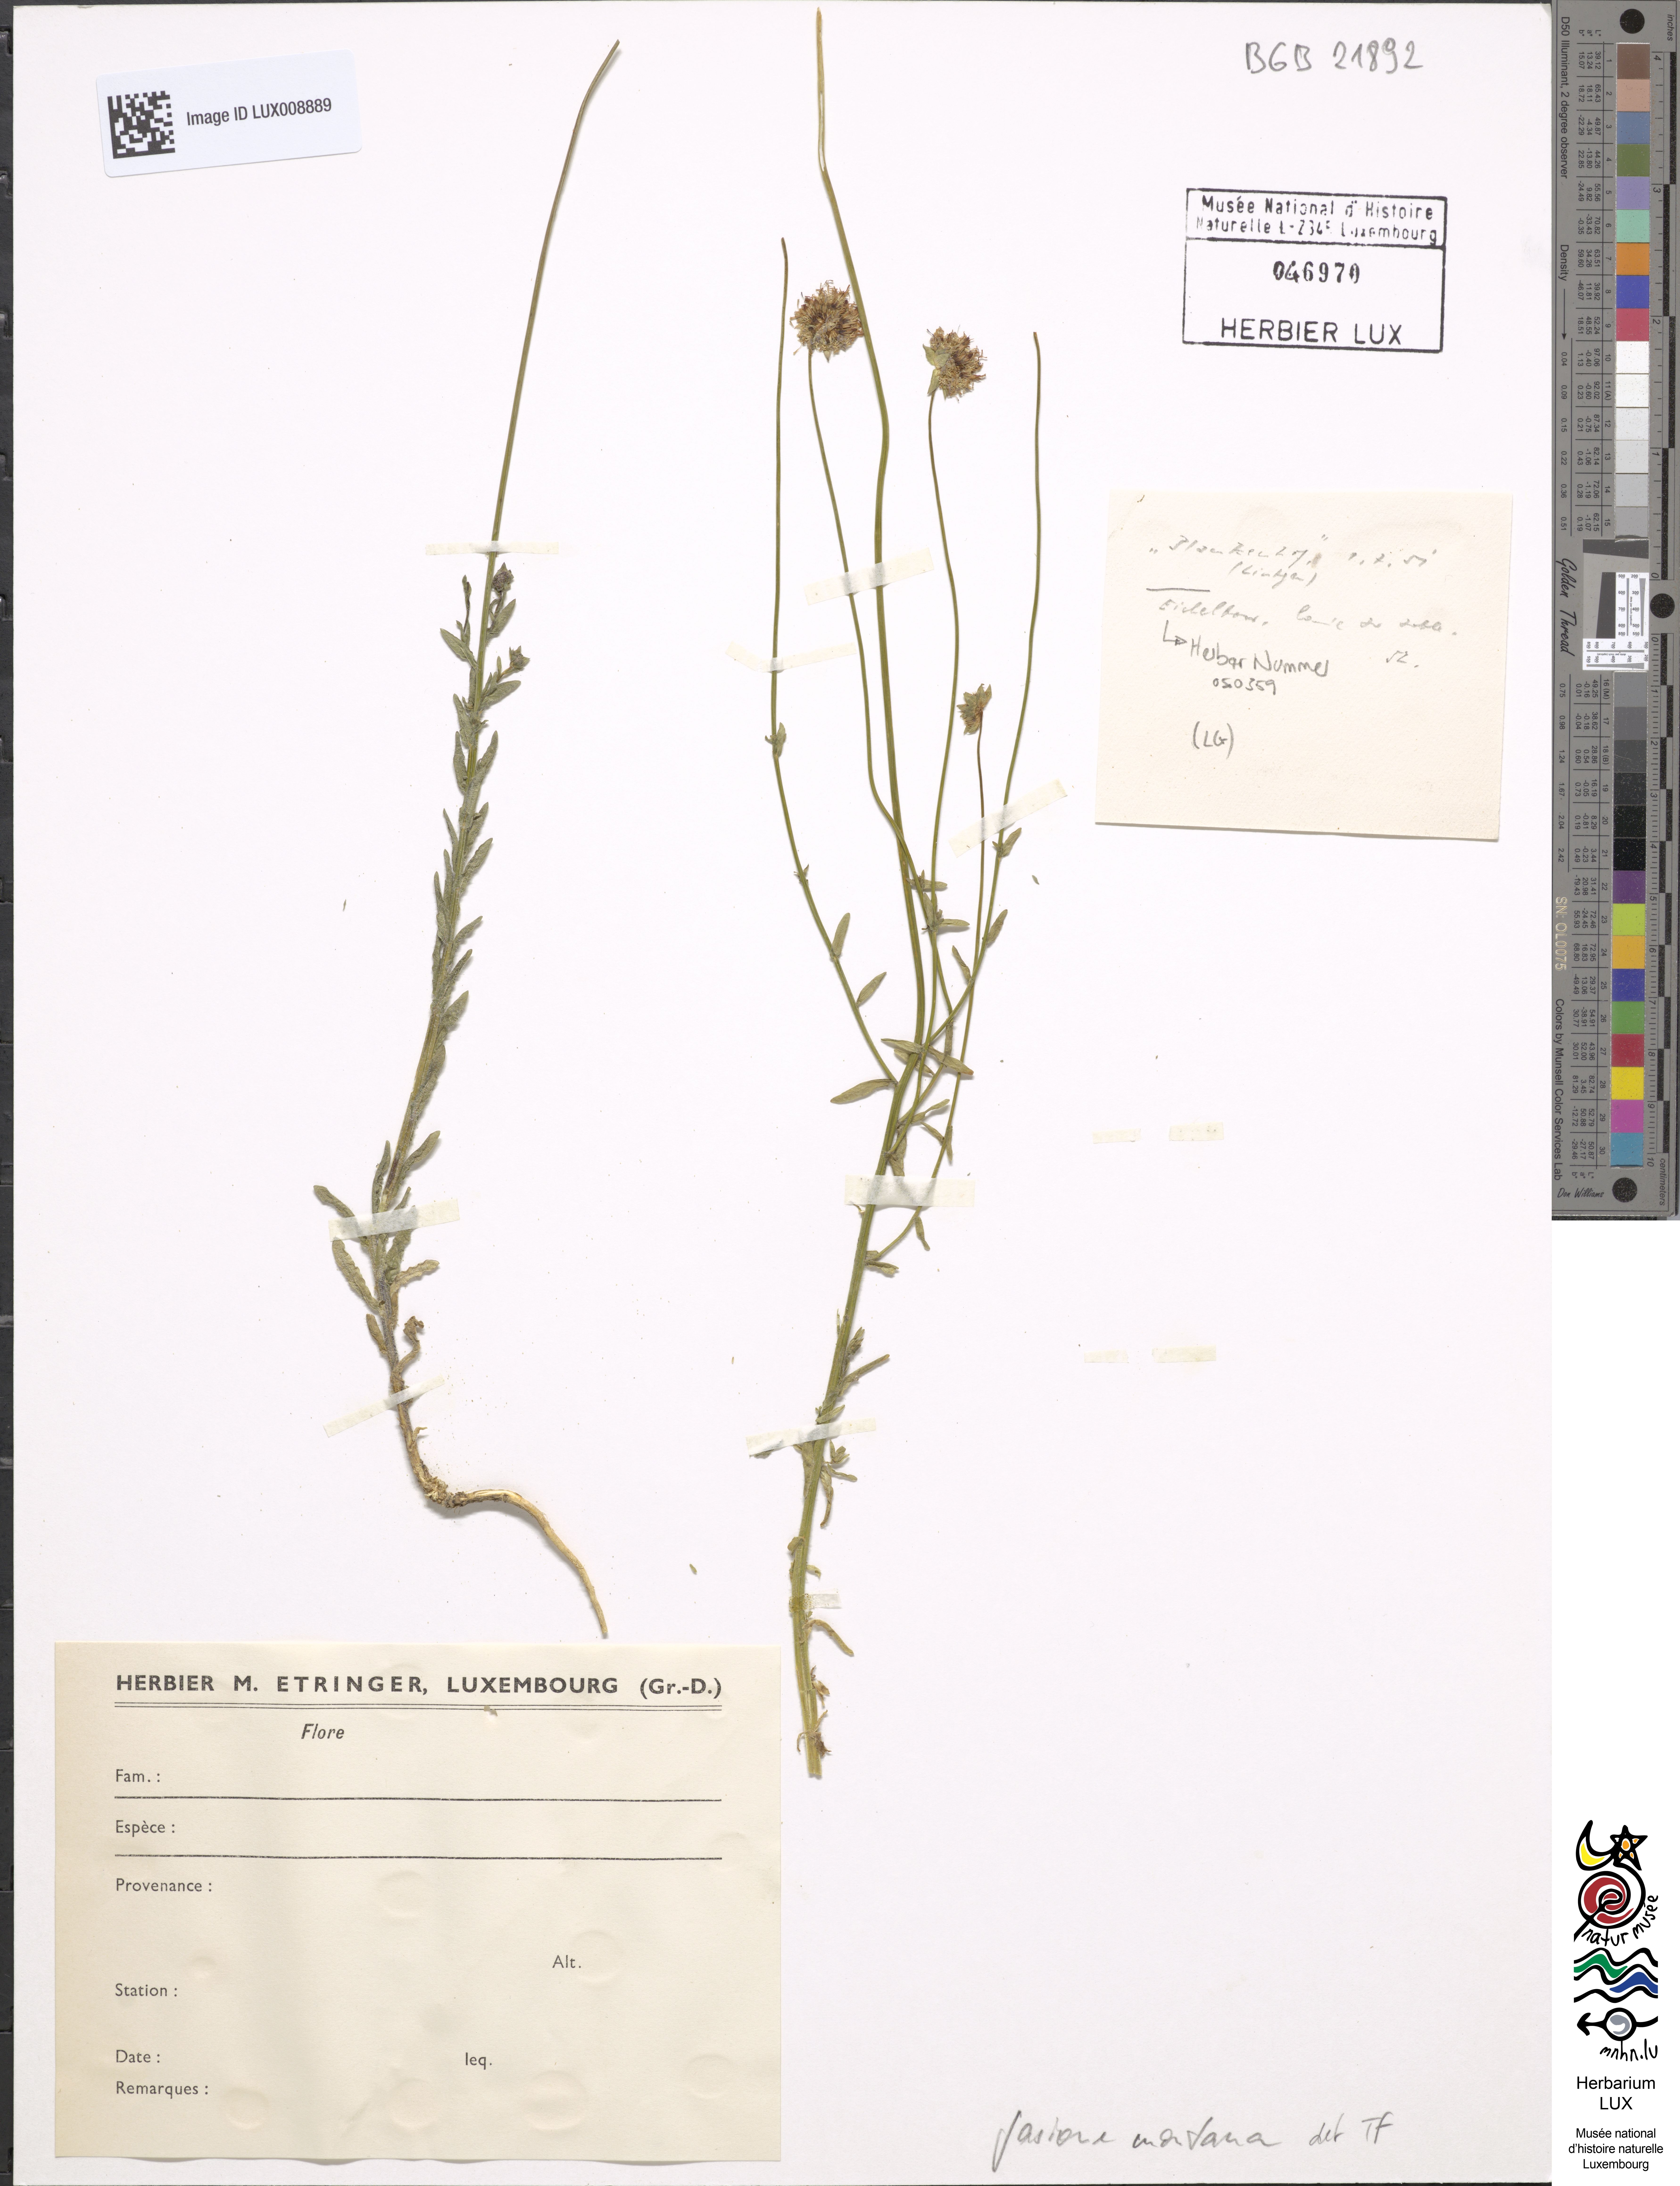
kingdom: Plantae
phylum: Tracheophyta
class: Magnoliopsida
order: Asterales
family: Campanulaceae
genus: Jasione
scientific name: Jasione montana
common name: Sheep's-bit
